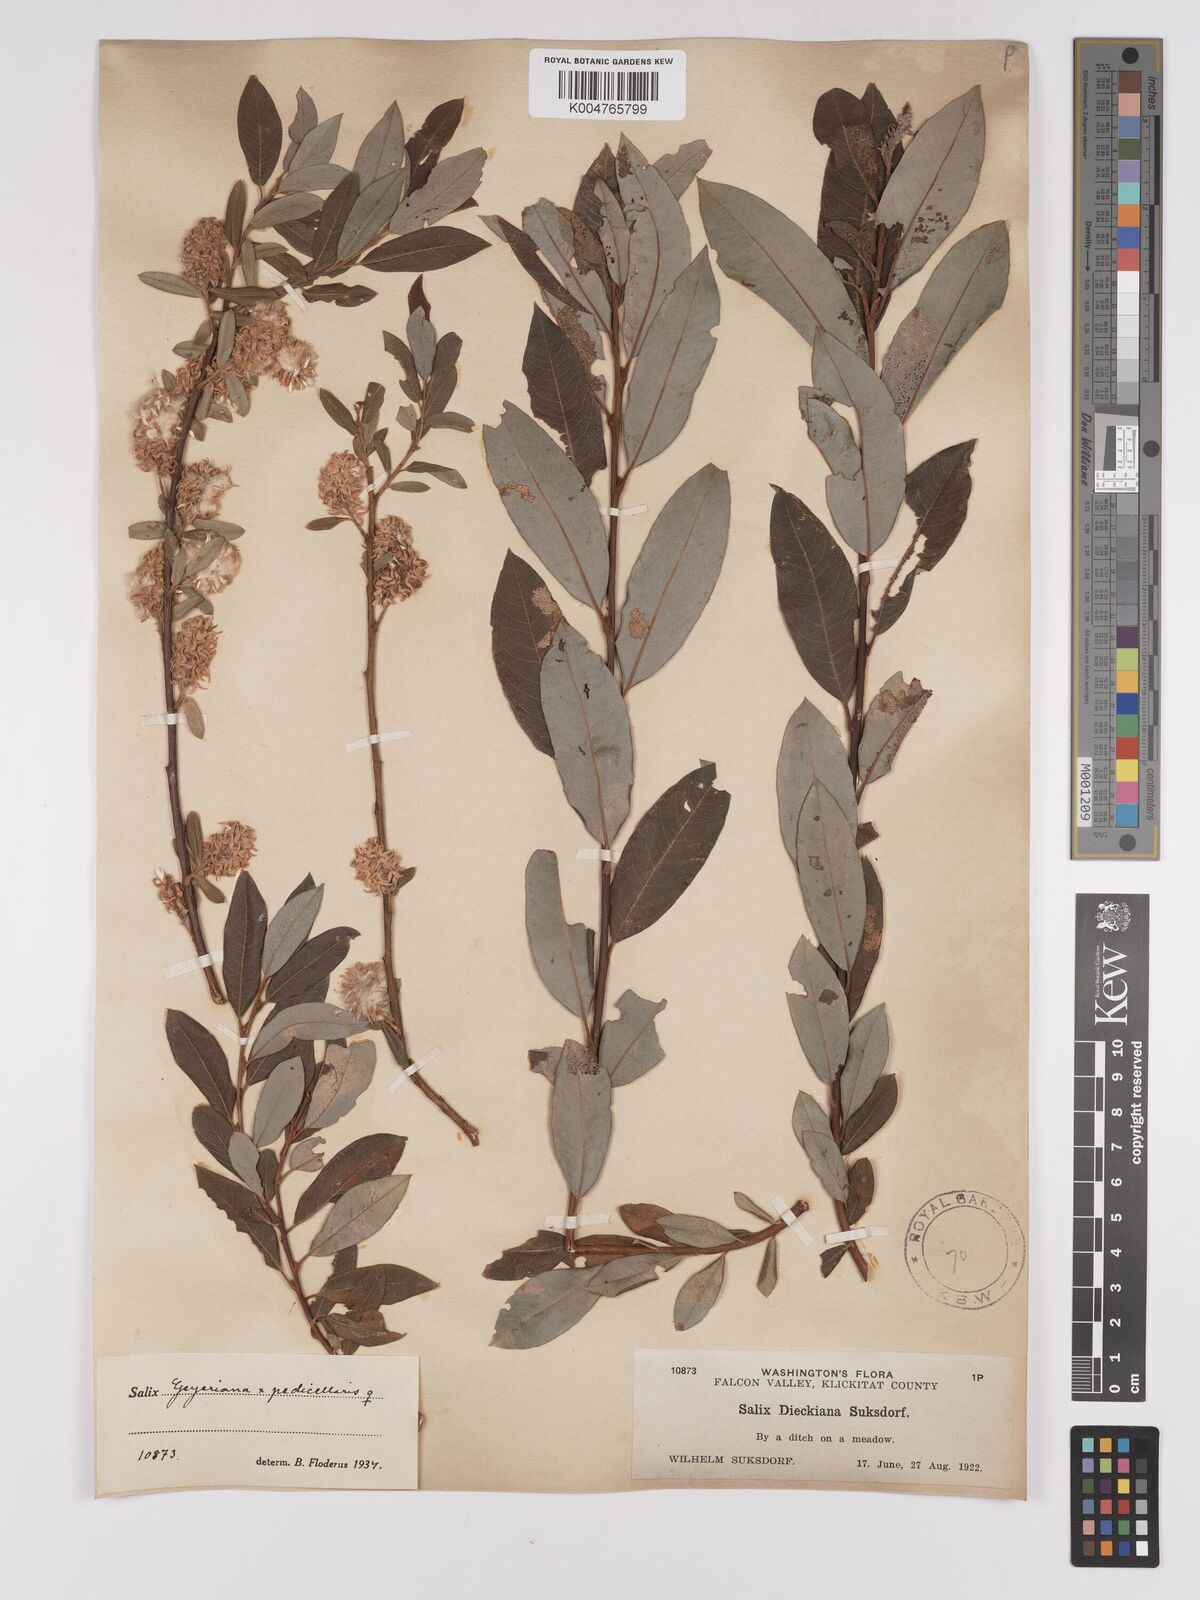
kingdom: Plantae
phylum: Tracheophyta
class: Magnoliopsida
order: Malpighiales
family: Salicaceae
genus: Salix
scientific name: Salix geyeriana
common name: Geyer's willow
